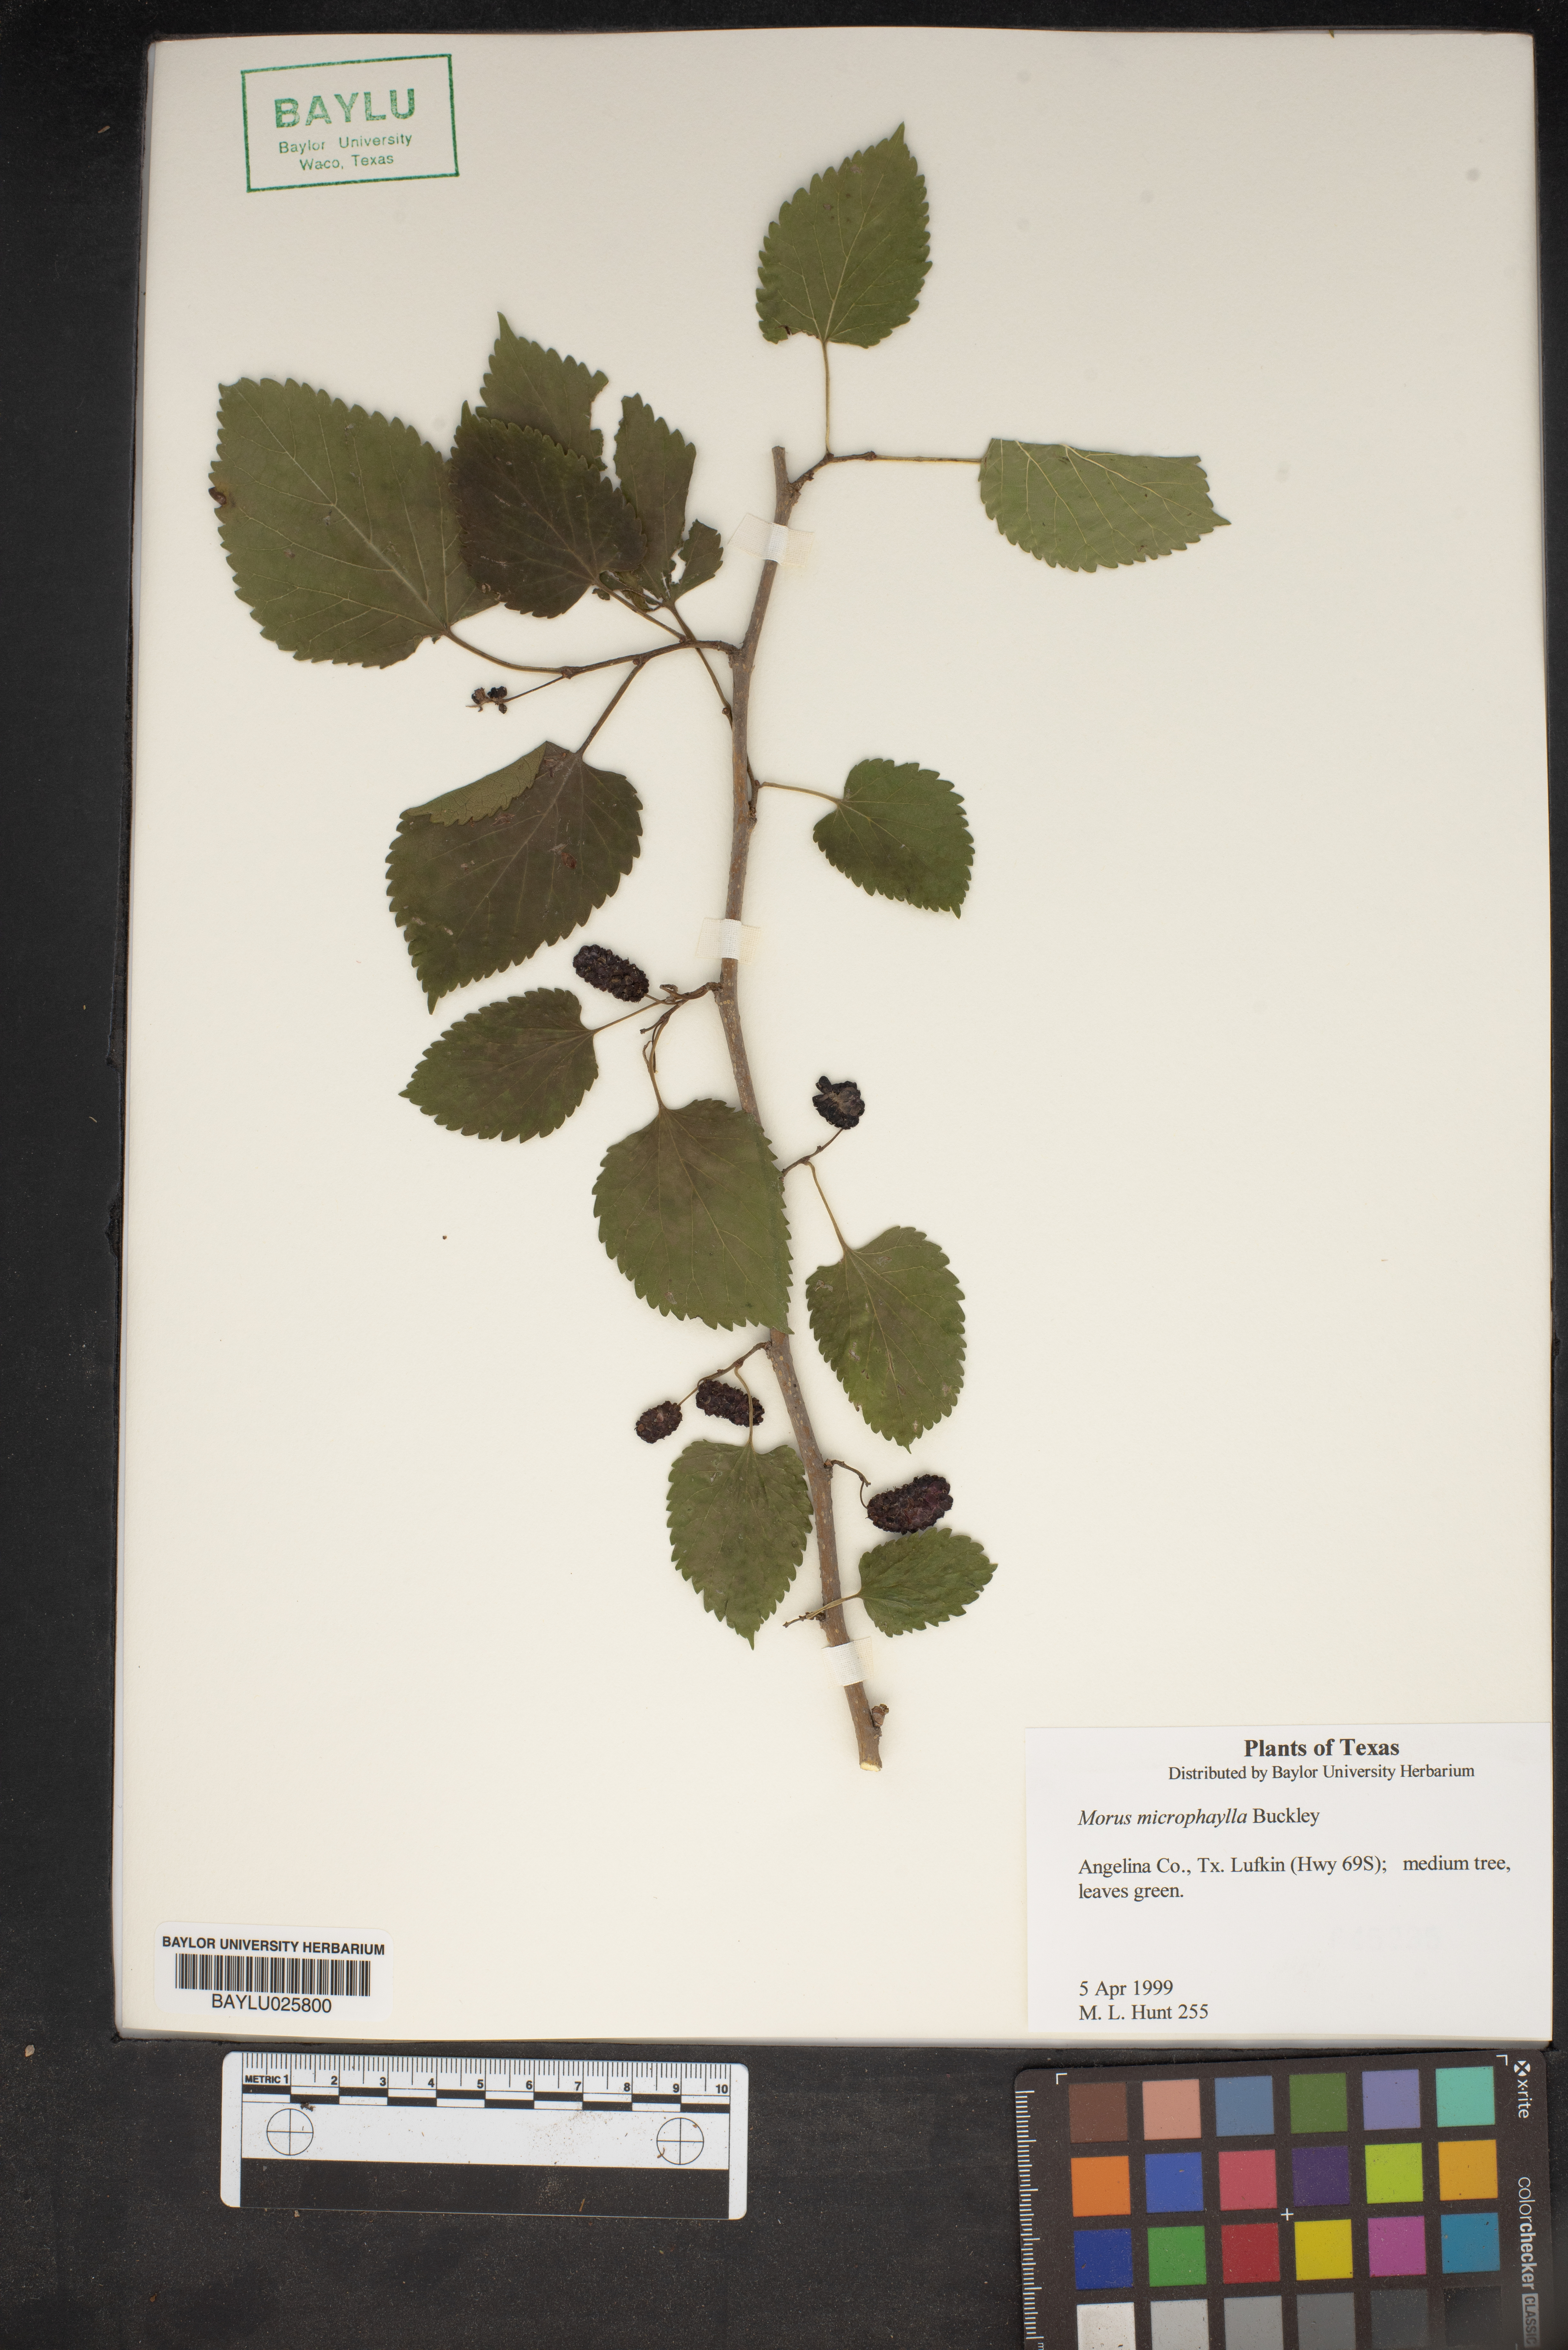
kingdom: Plantae
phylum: Tracheophyta
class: Magnoliopsida
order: Rosales
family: Moraceae
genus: Morus
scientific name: Morus microphylla
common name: Mexican mulberry
